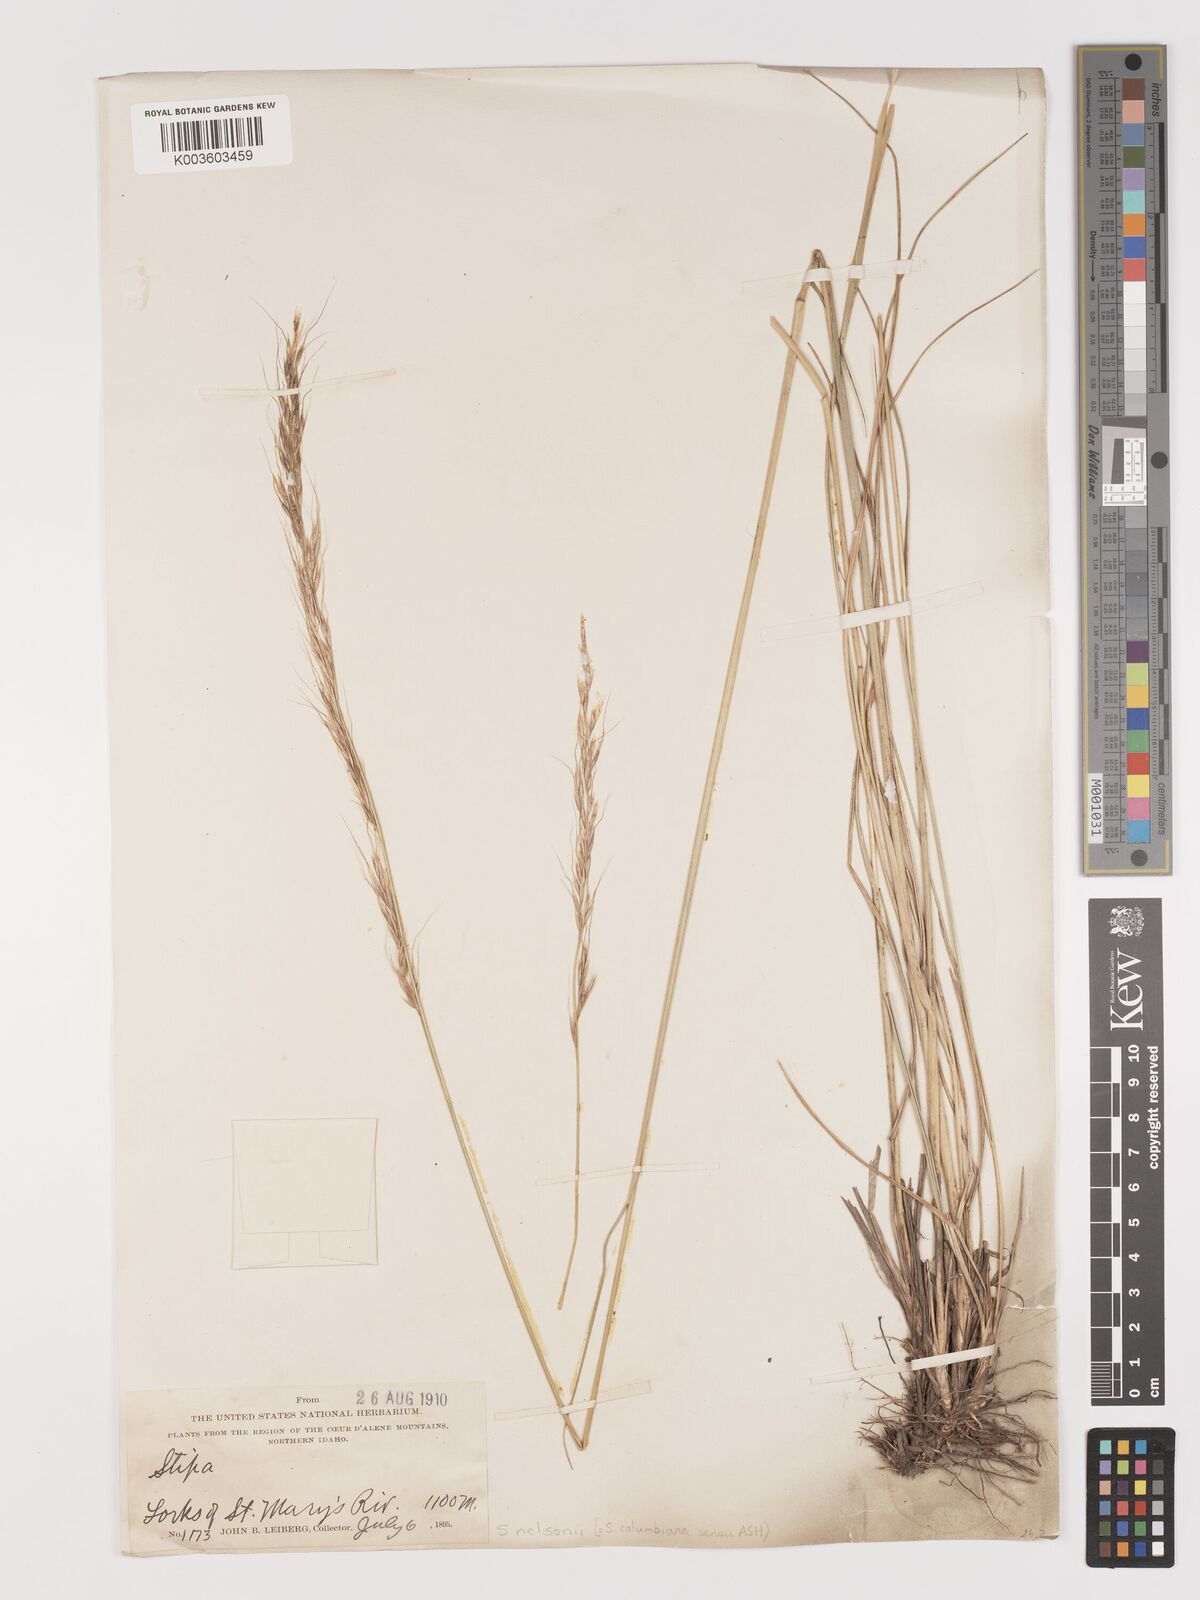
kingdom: Plantae
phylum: Tracheophyta
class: Liliopsida
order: Poales
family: Poaceae
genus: Eriocoma
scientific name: Eriocoma nelsonii
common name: Nelson's needlegrass
